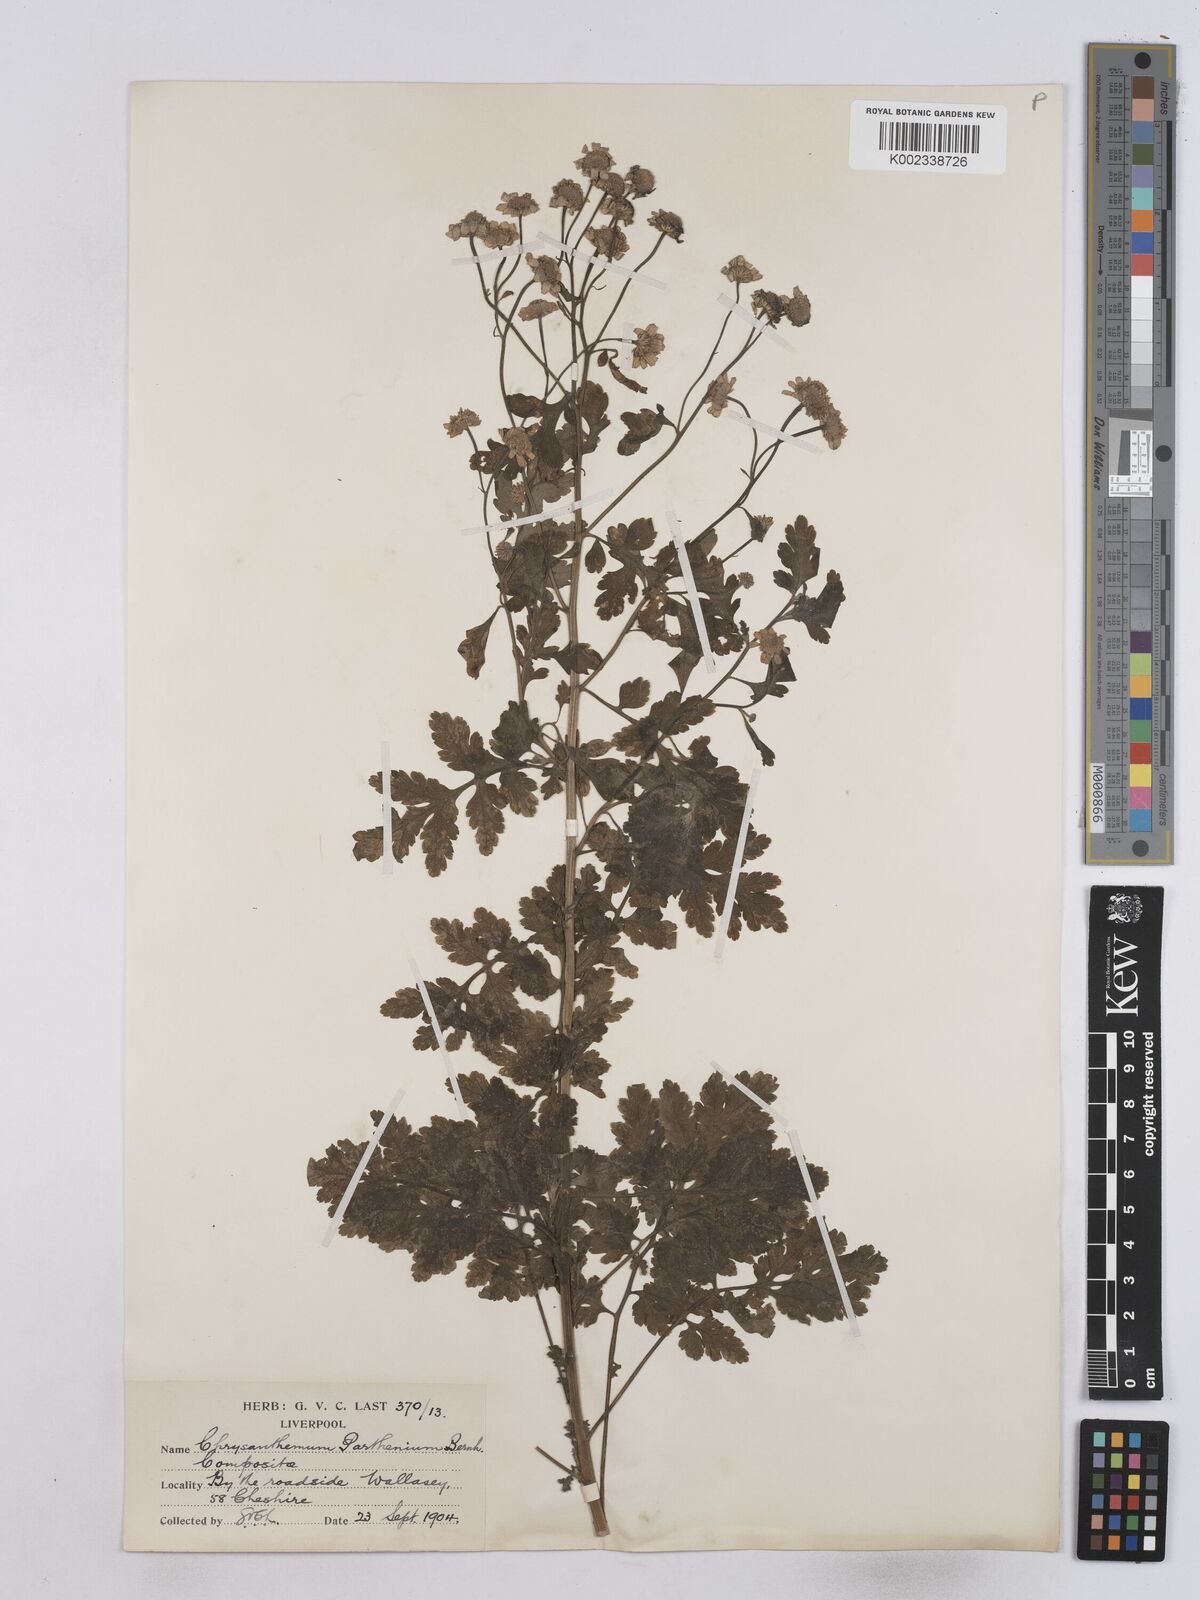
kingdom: Plantae
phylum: Tracheophyta
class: Magnoliopsida
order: Asterales
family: Asteraceae
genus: Tanacetum
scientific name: Tanacetum parthenium
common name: Feverfew
